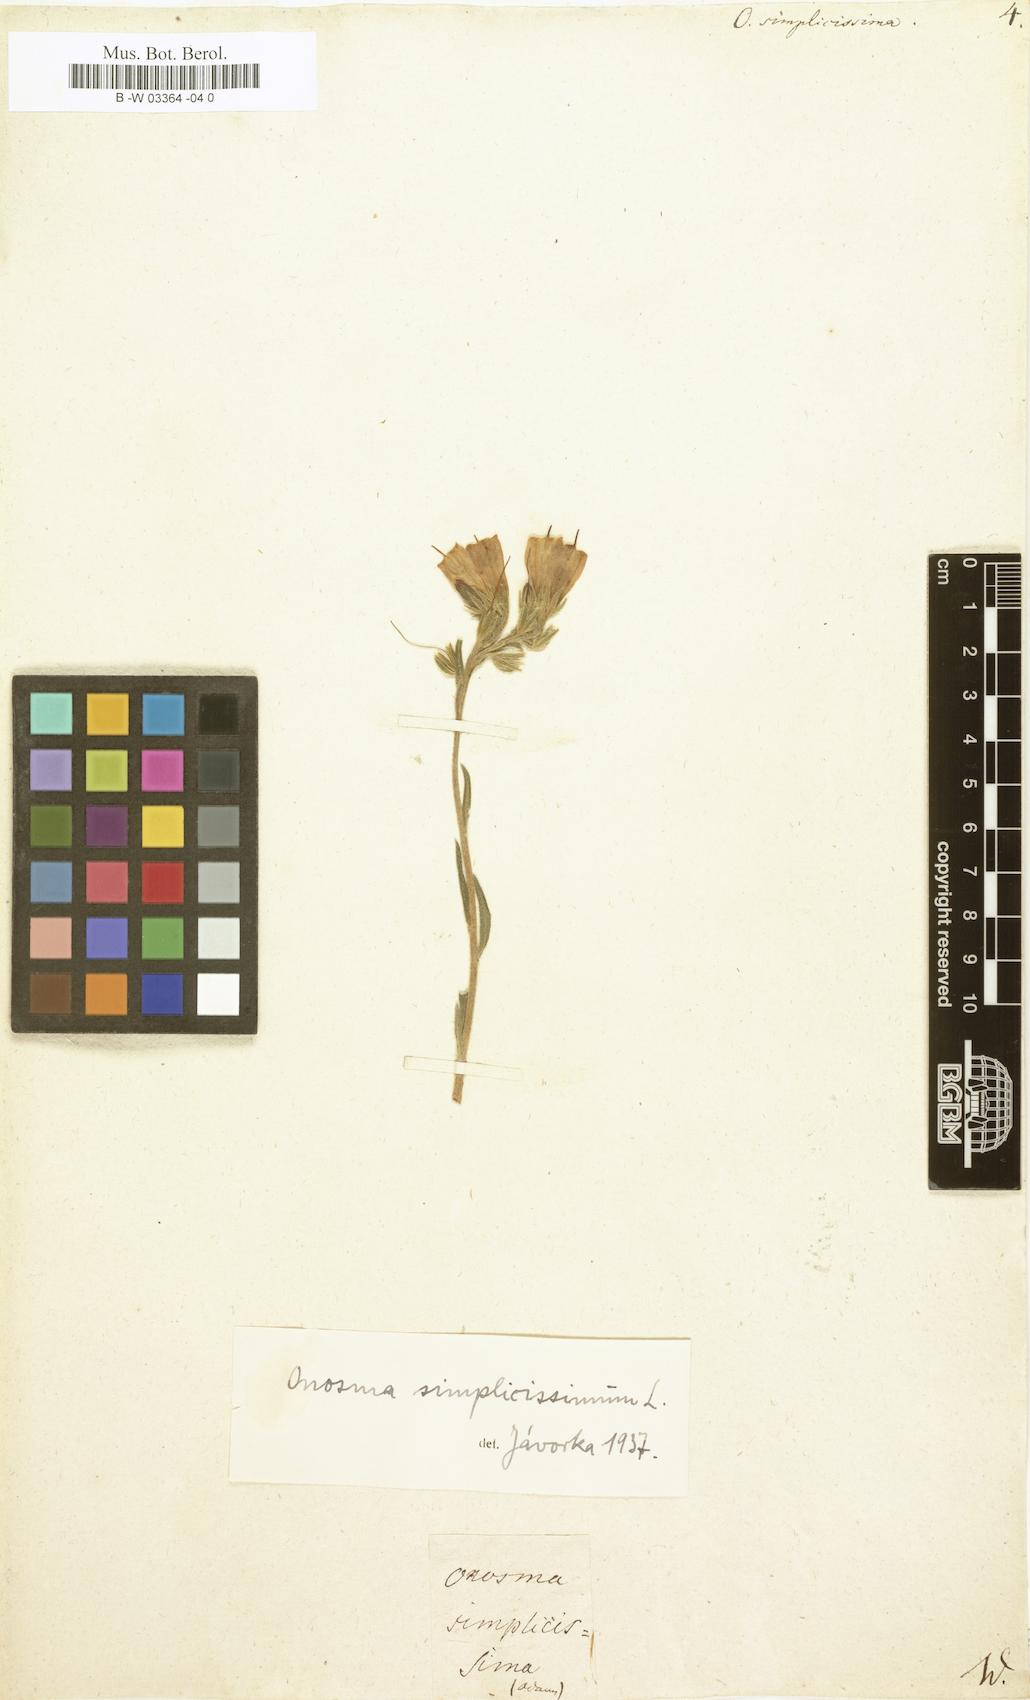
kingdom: Plantae
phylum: Tracheophyta
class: Magnoliopsida
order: Boraginales
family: Boraginaceae
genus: Onosma
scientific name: Onosma simplicissima
